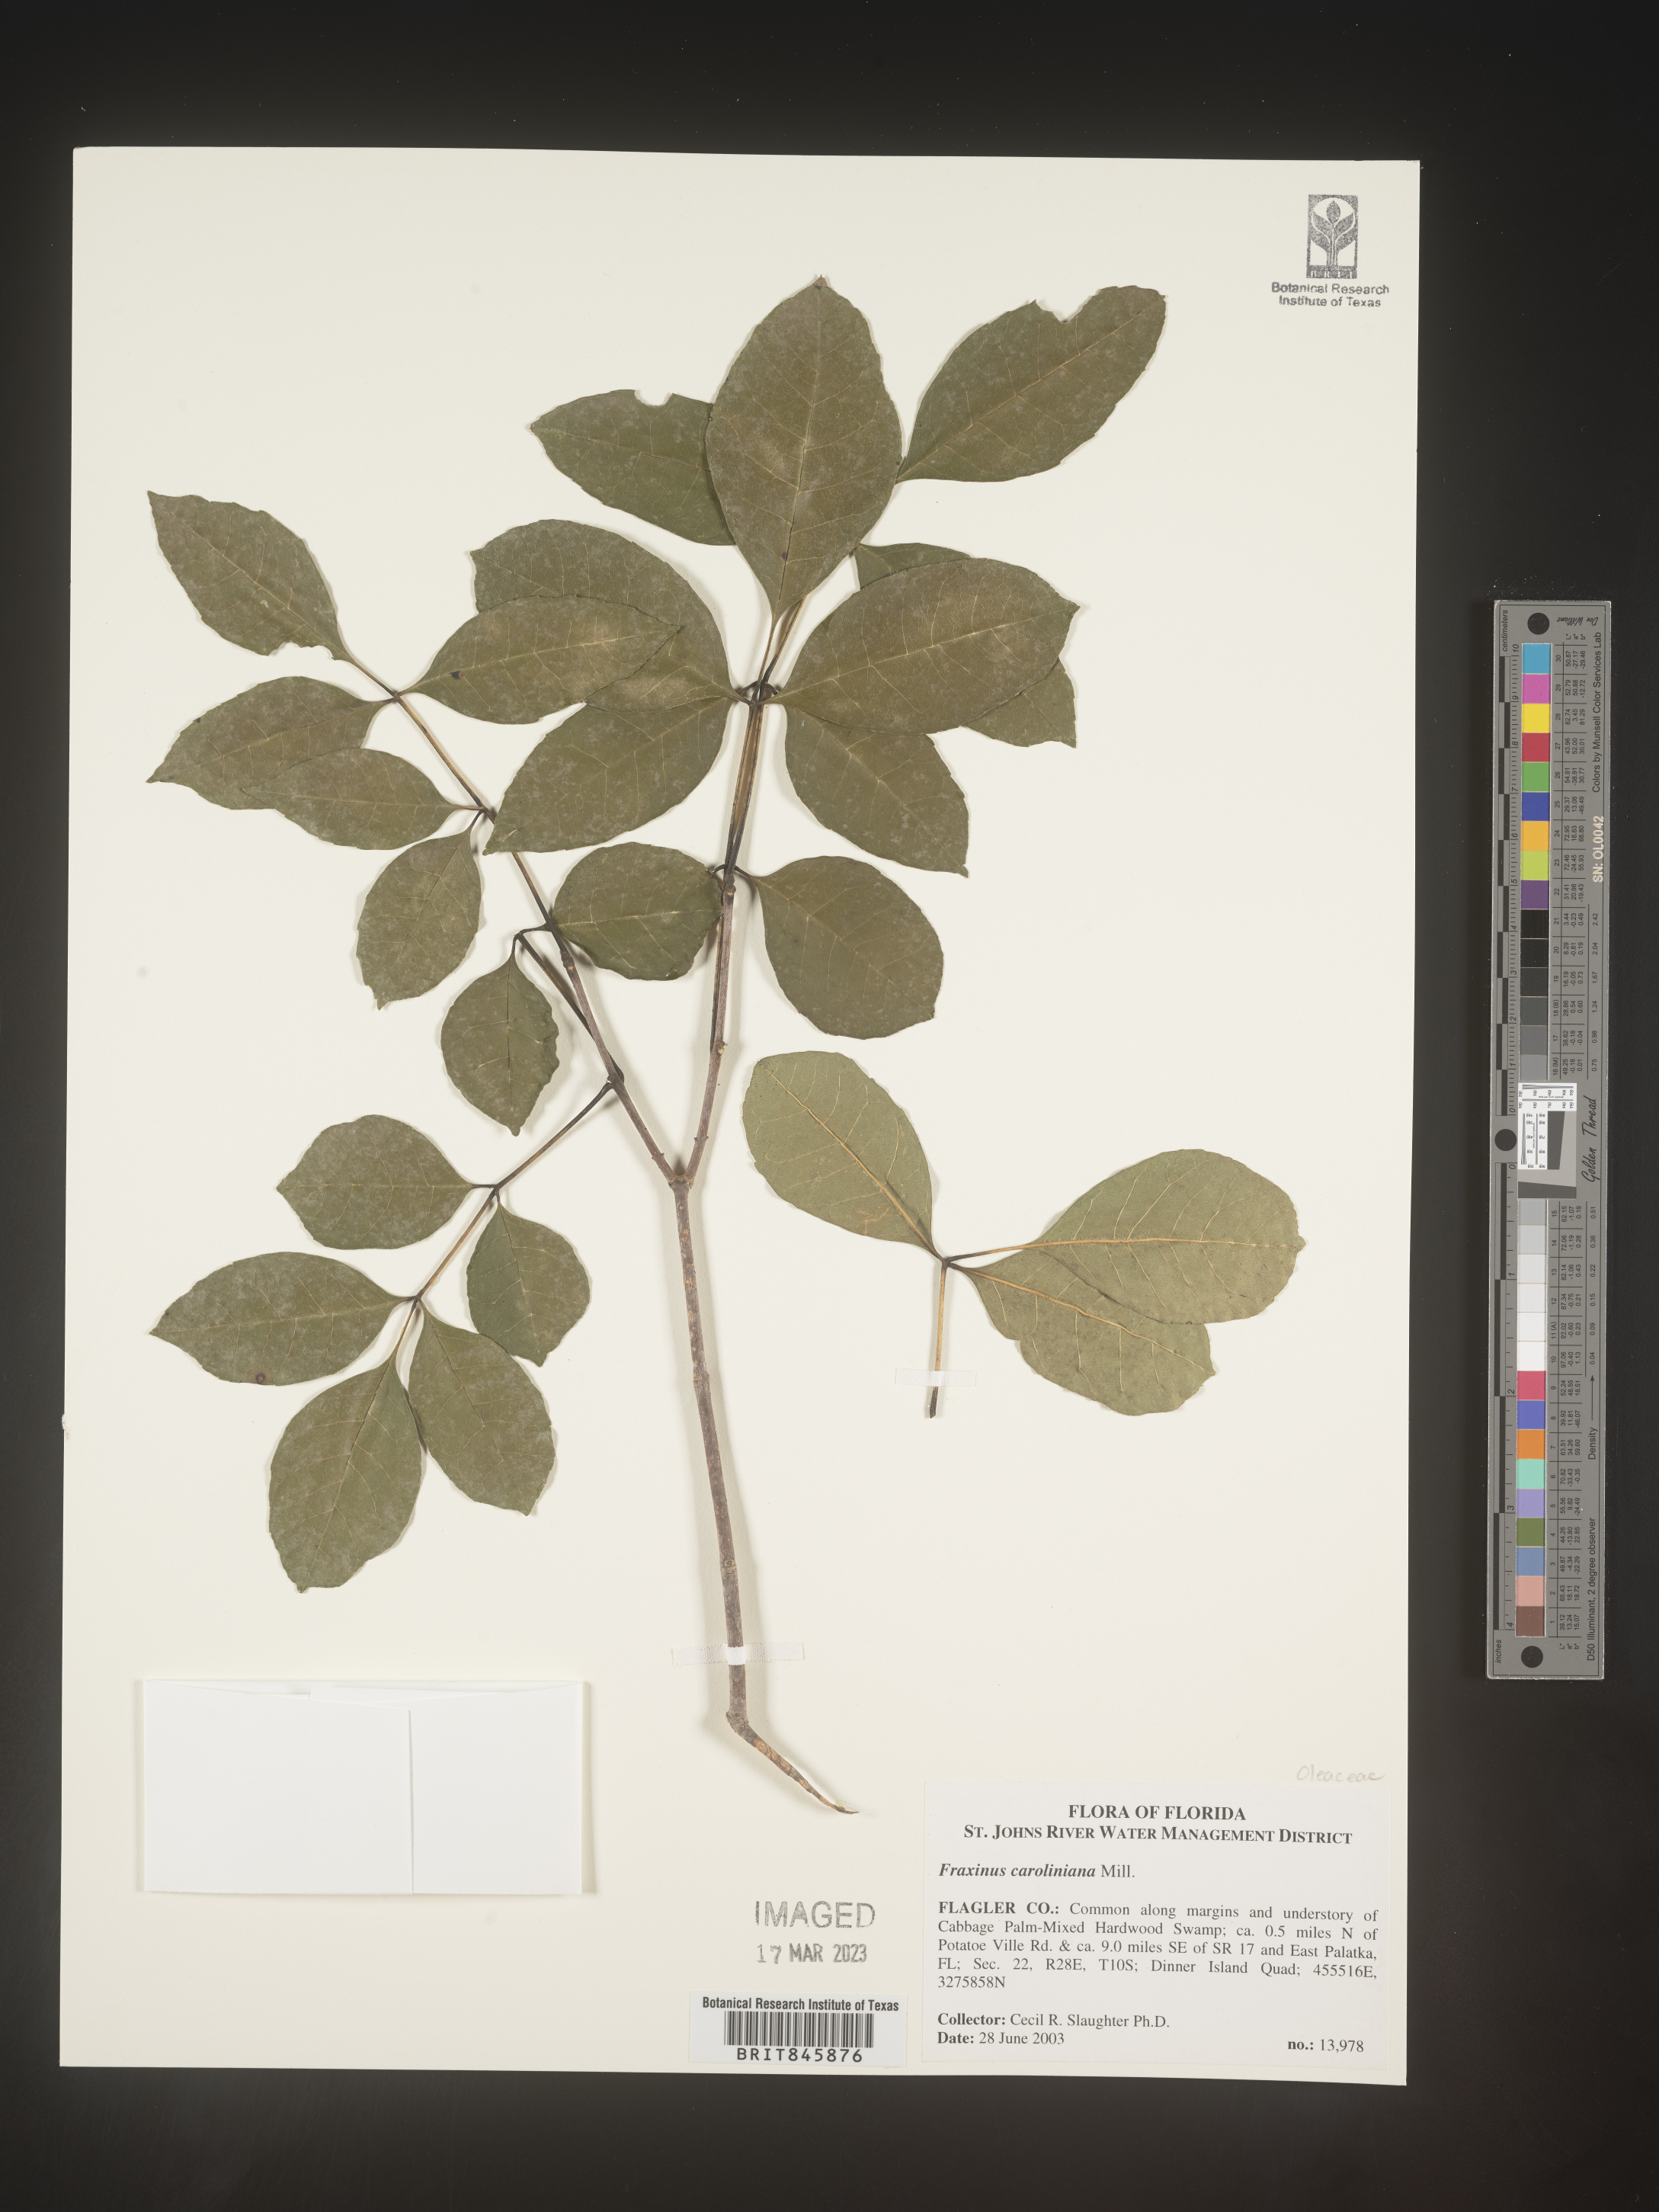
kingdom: Plantae
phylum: Tracheophyta
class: Magnoliopsida
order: Lamiales
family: Oleaceae
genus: Fraxinus
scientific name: Fraxinus caroliniana
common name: Carolina ash
